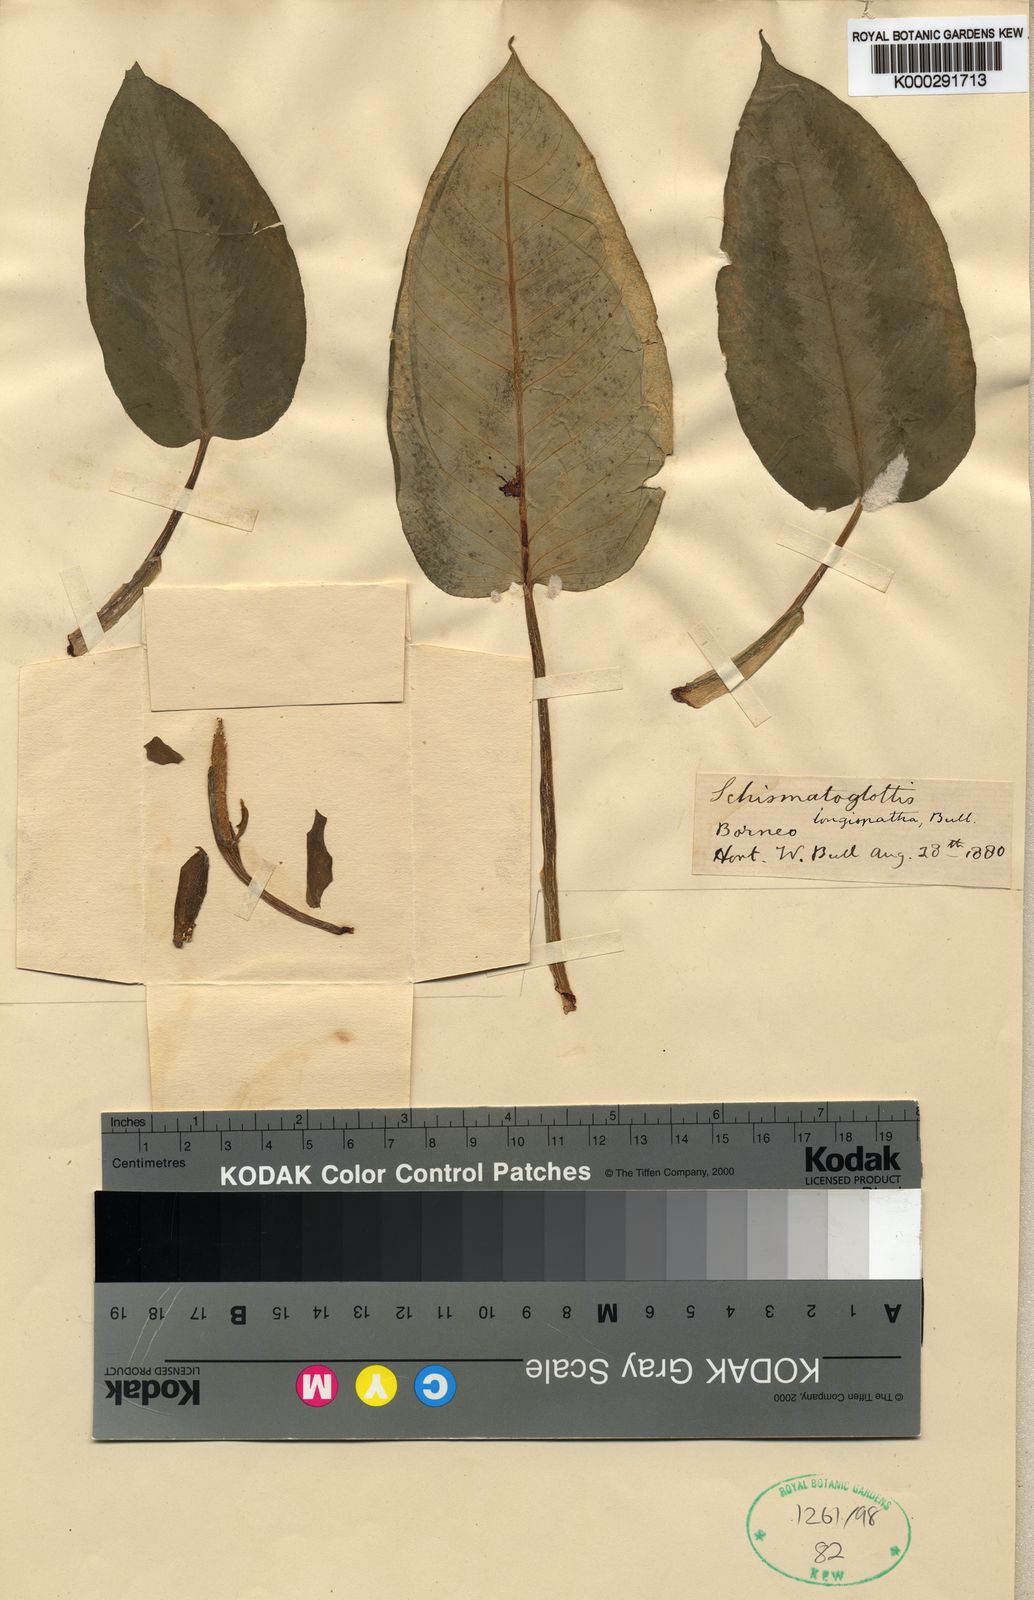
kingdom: Plantae
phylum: Tracheophyta
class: Liliopsida
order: Alismatales
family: Araceae
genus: Schismatoglottis
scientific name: Schismatoglottis longispatha
